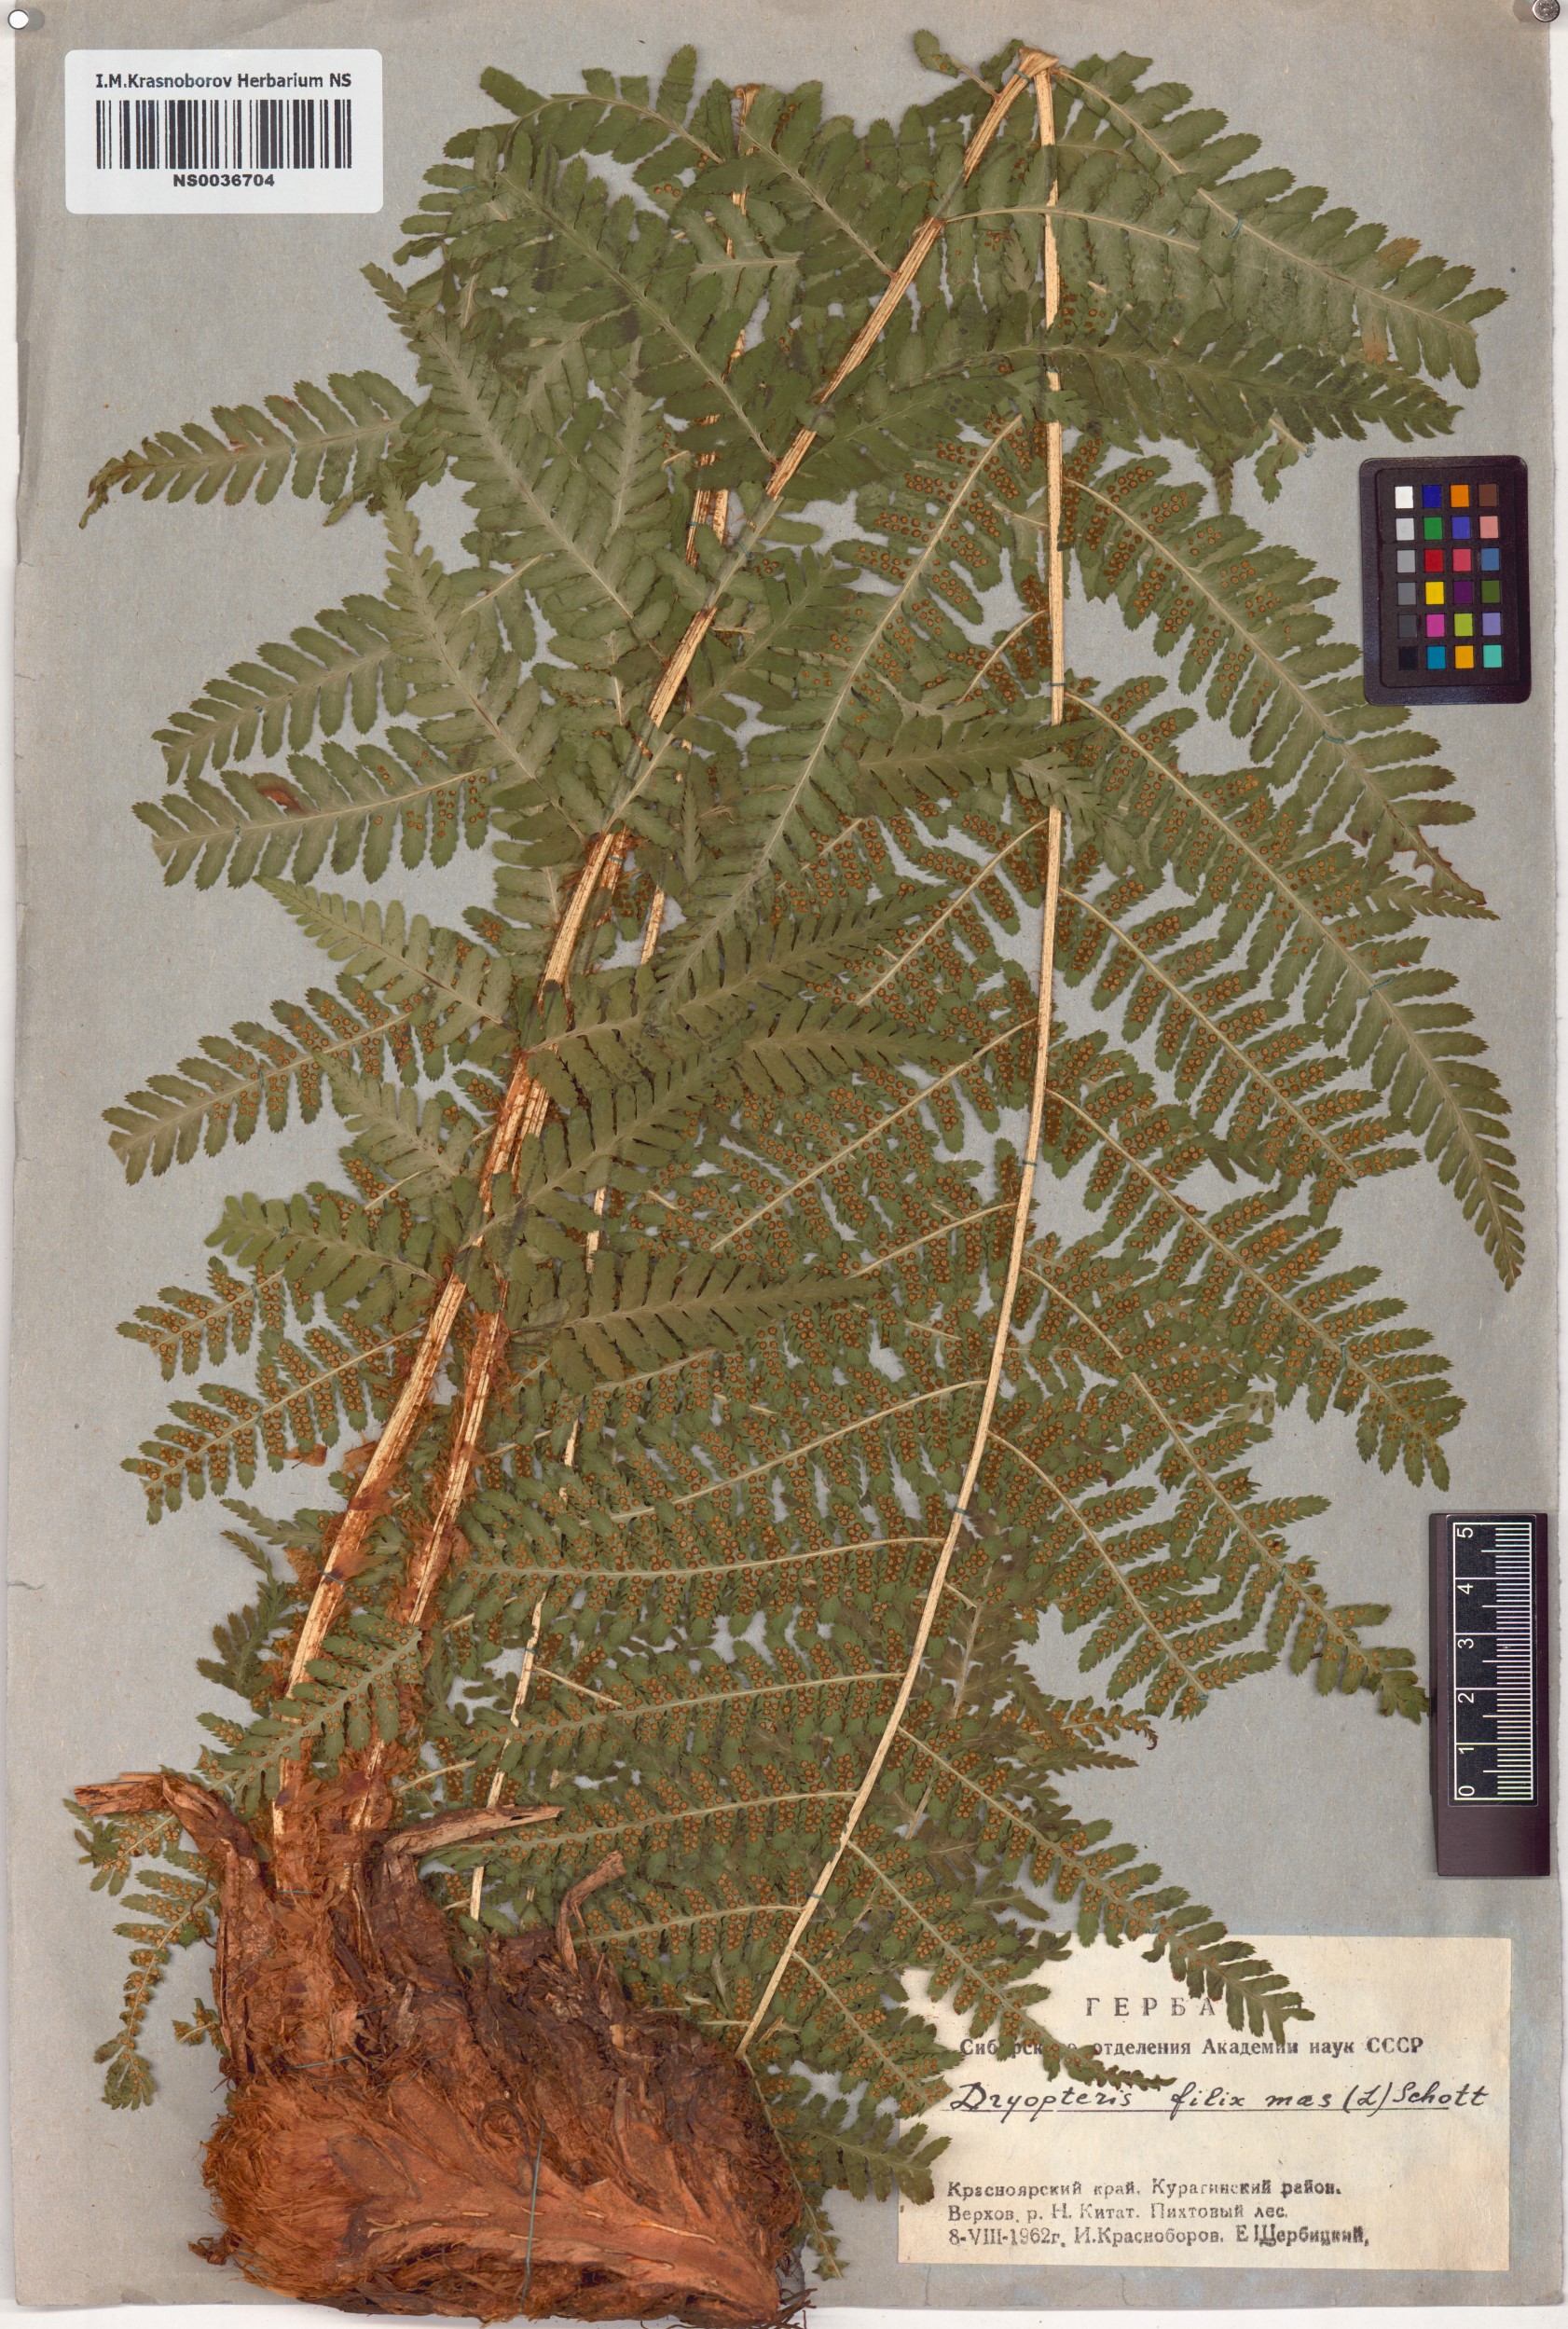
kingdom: Plantae
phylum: Tracheophyta
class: Polypodiopsida
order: Polypodiales
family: Dryopteridaceae
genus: Dryopteris
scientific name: Dryopteris filix-mas
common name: Male fern
